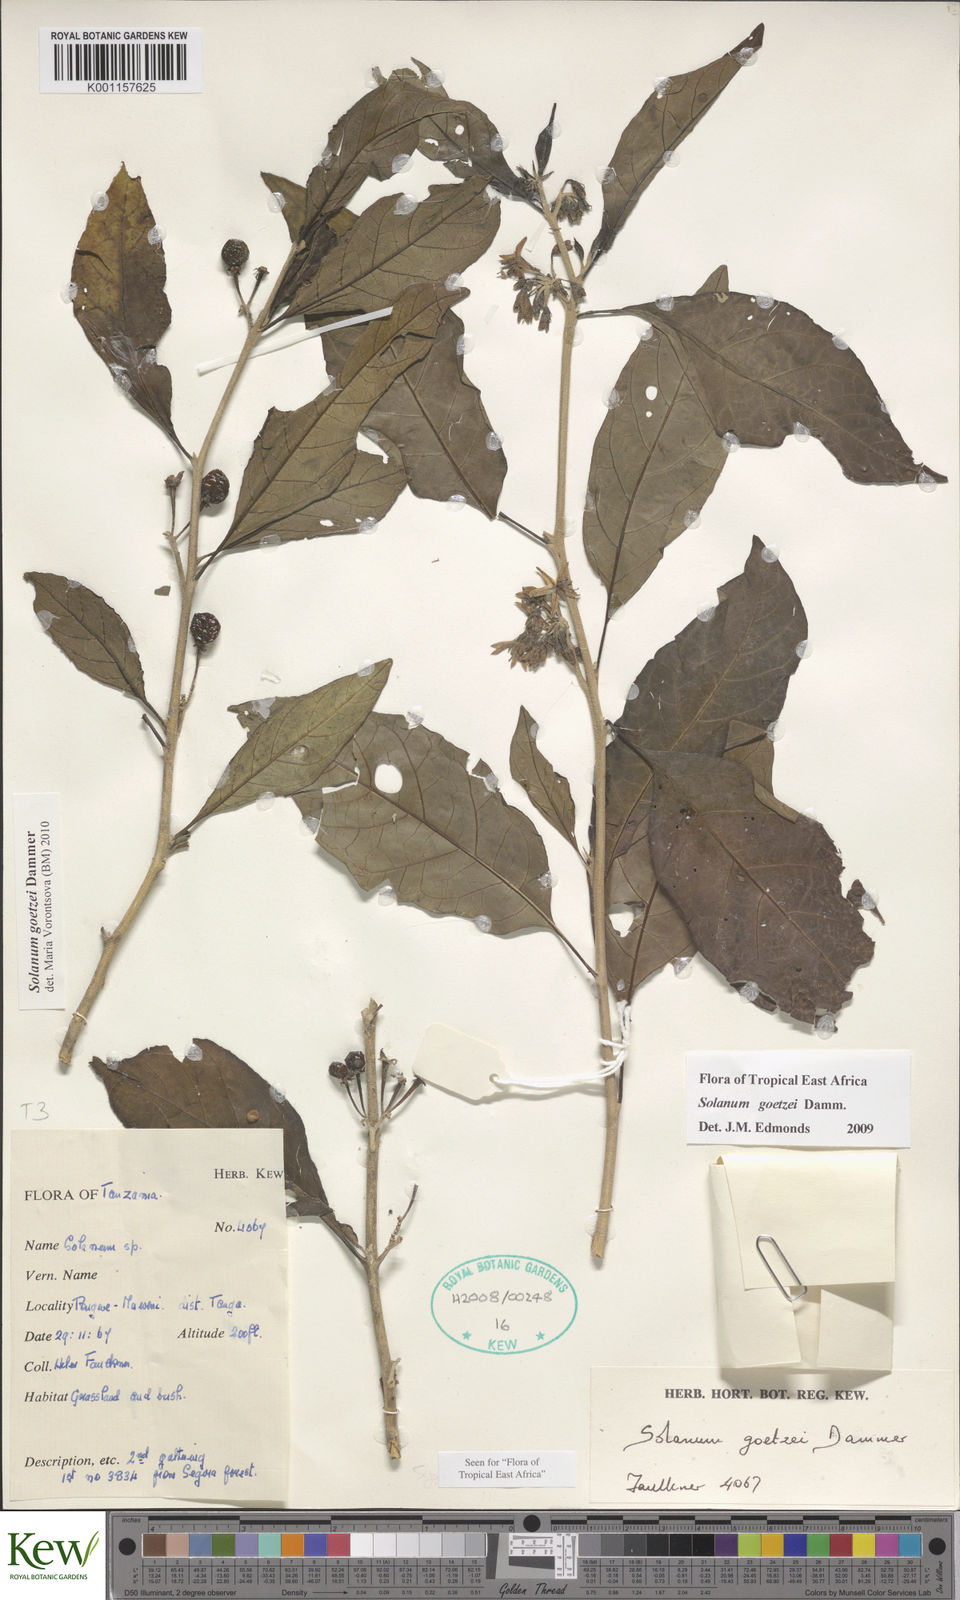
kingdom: Plantae
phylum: Tracheophyta
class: Magnoliopsida
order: Solanales
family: Solanaceae
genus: Solanum
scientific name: Solanum goetzei
